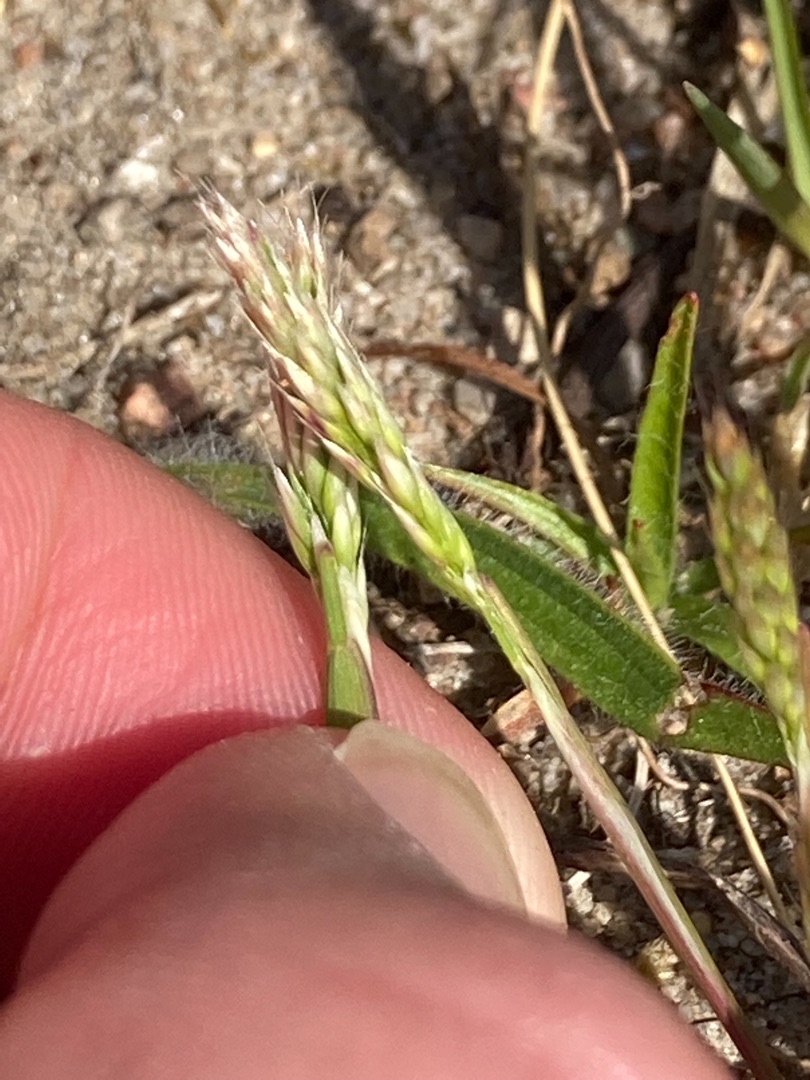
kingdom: Plantae
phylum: Tracheophyta
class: Liliopsida
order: Poales
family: Poaceae
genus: Aira
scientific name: Aira praecox
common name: Tidlig dværgbunke
